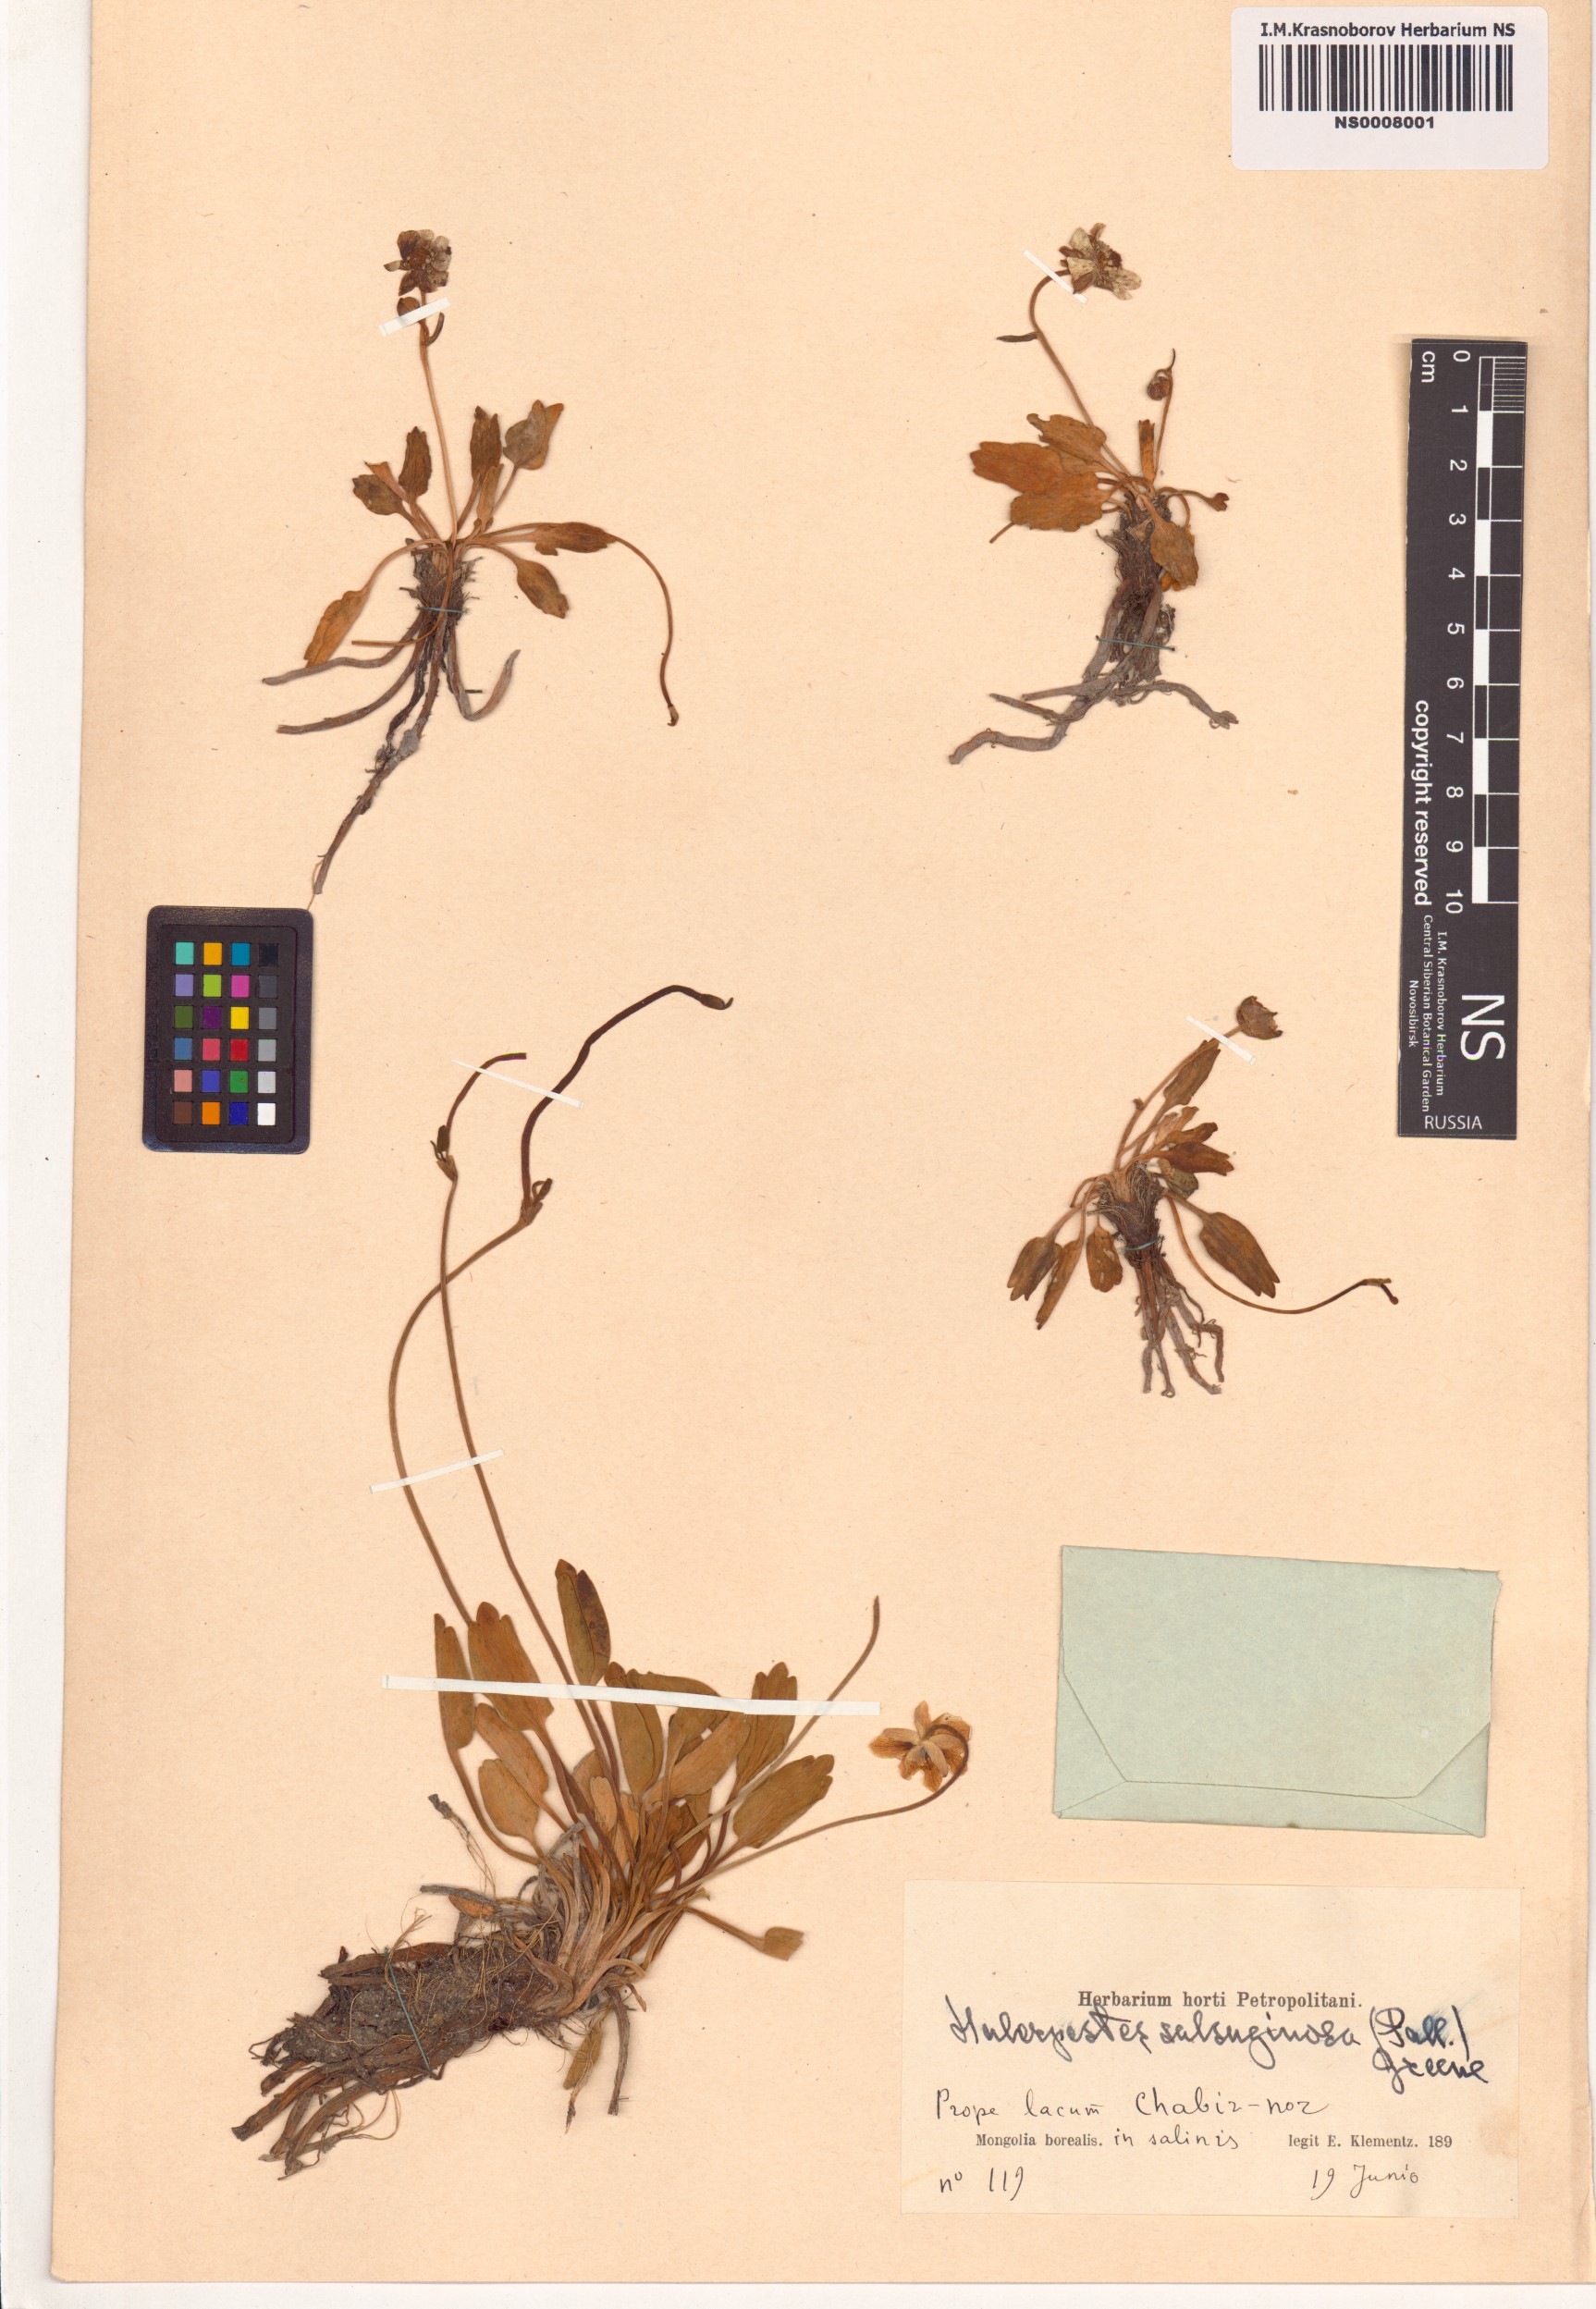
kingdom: Plantae
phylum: Tracheophyta
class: Magnoliopsida
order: Ranunculales
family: Ranunculaceae
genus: Halerpestes
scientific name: Halerpestes sarmentosus
